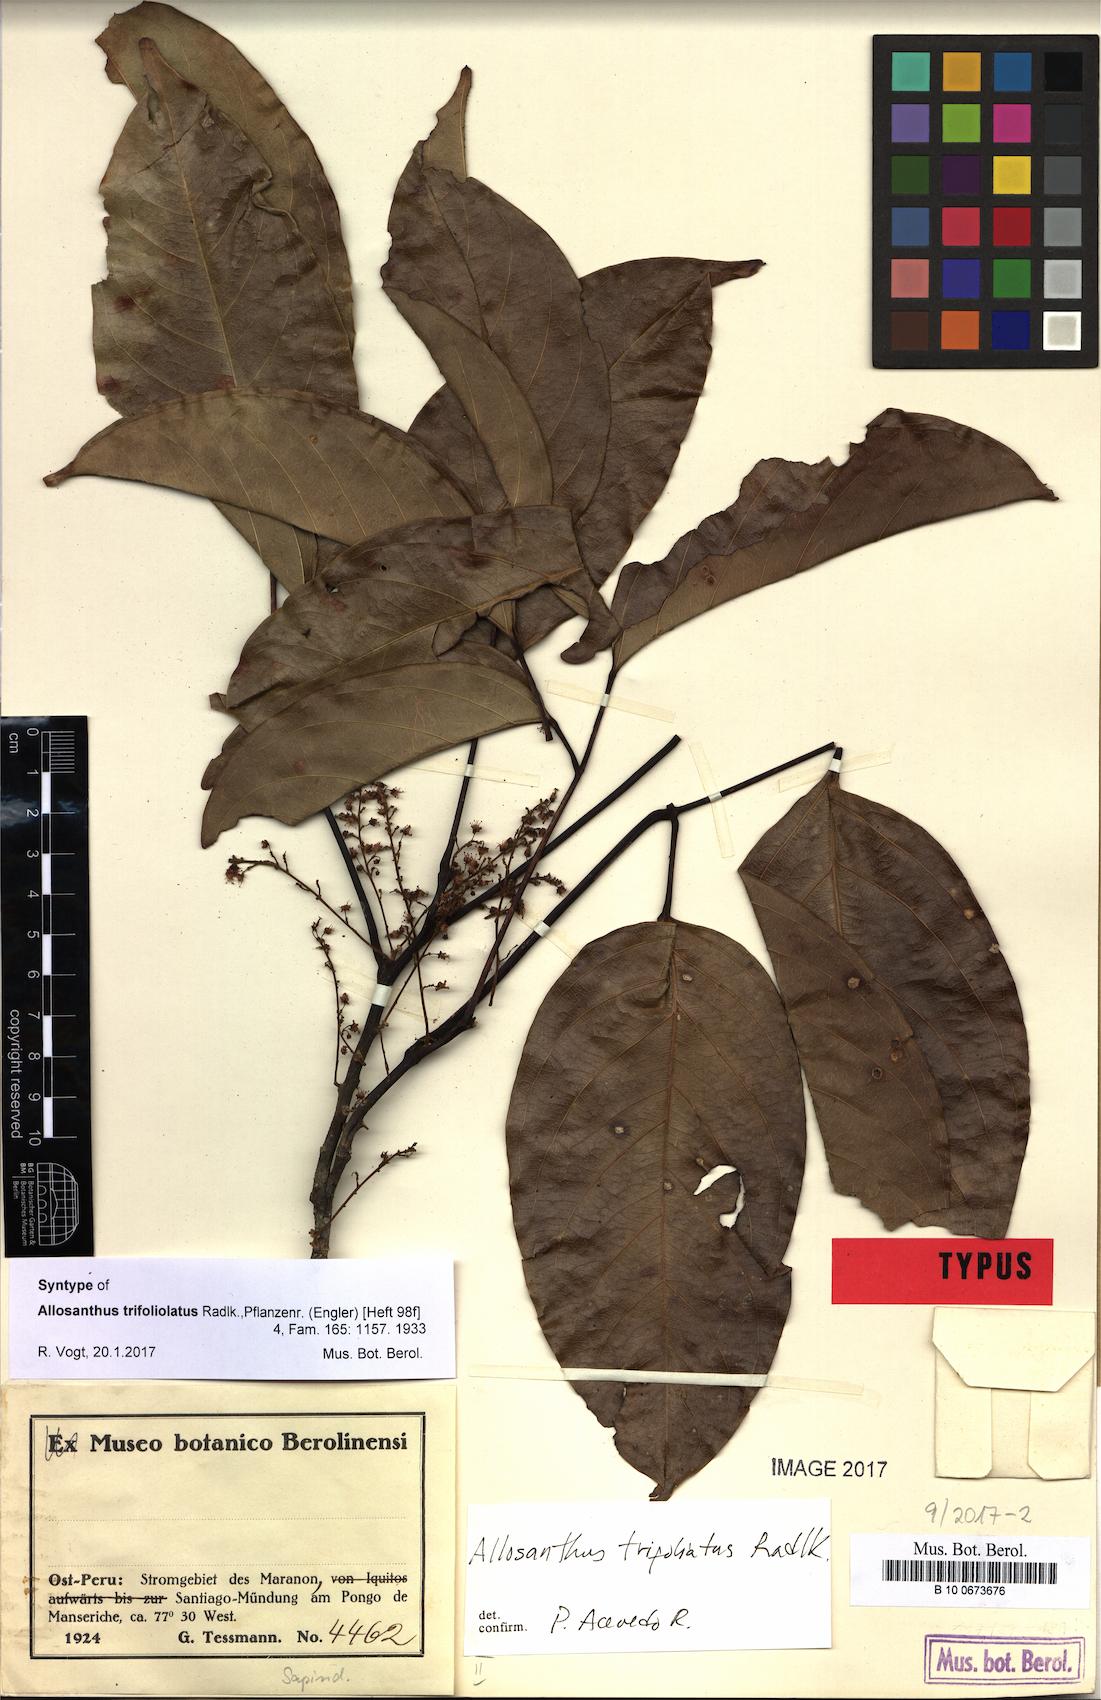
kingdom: Plantae
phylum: Tracheophyta
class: Magnoliopsida
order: Sapindales
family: Sapindaceae
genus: Thinouia
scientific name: Thinouia trifoliolata
